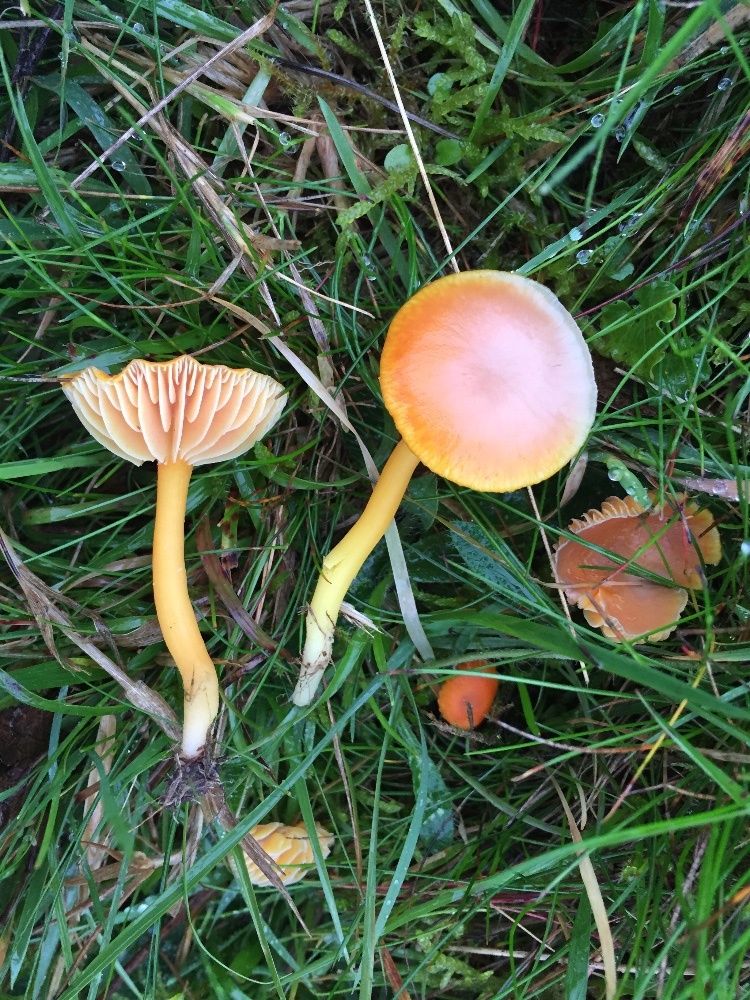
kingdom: Fungi
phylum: Basidiomycota
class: Agaricomycetes
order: Agaricales
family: Hygrophoraceae
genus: Hygrocybe
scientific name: Hygrocybe reidii
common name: honning-vokshat
